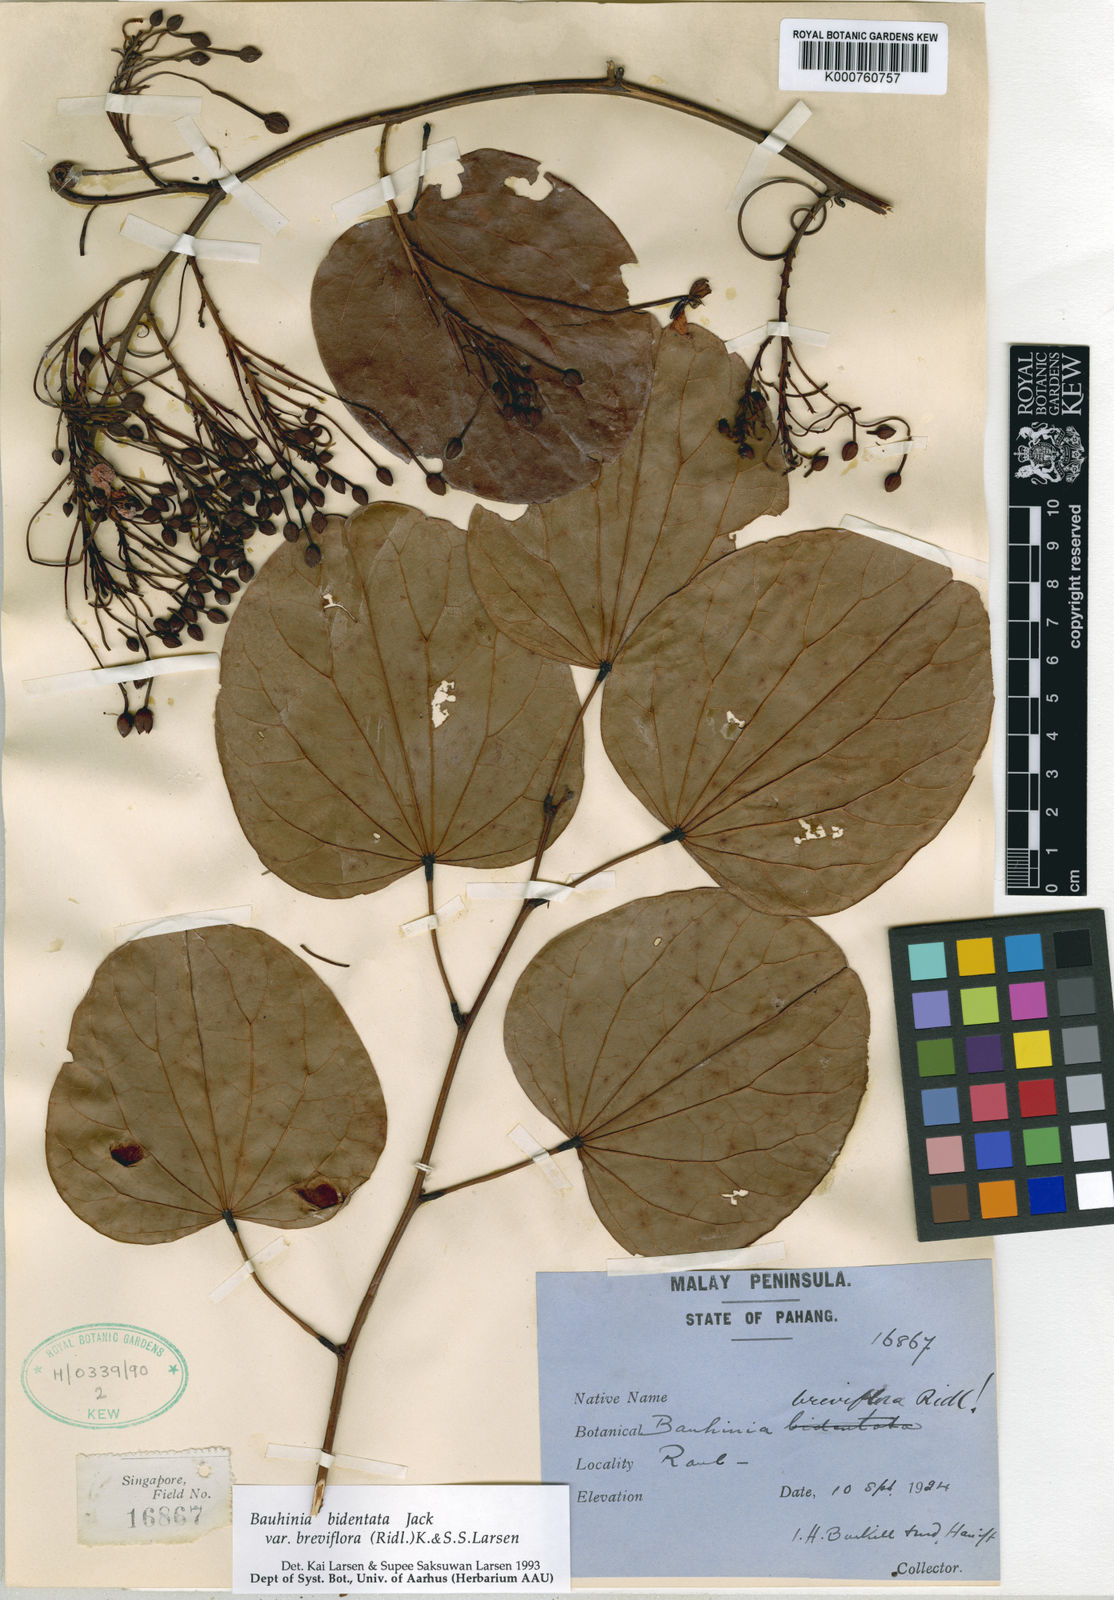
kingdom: Plantae
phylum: Tracheophyta
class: Magnoliopsida
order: Fabales
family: Fabaceae
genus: Phanera
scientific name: Phanera bidentata
